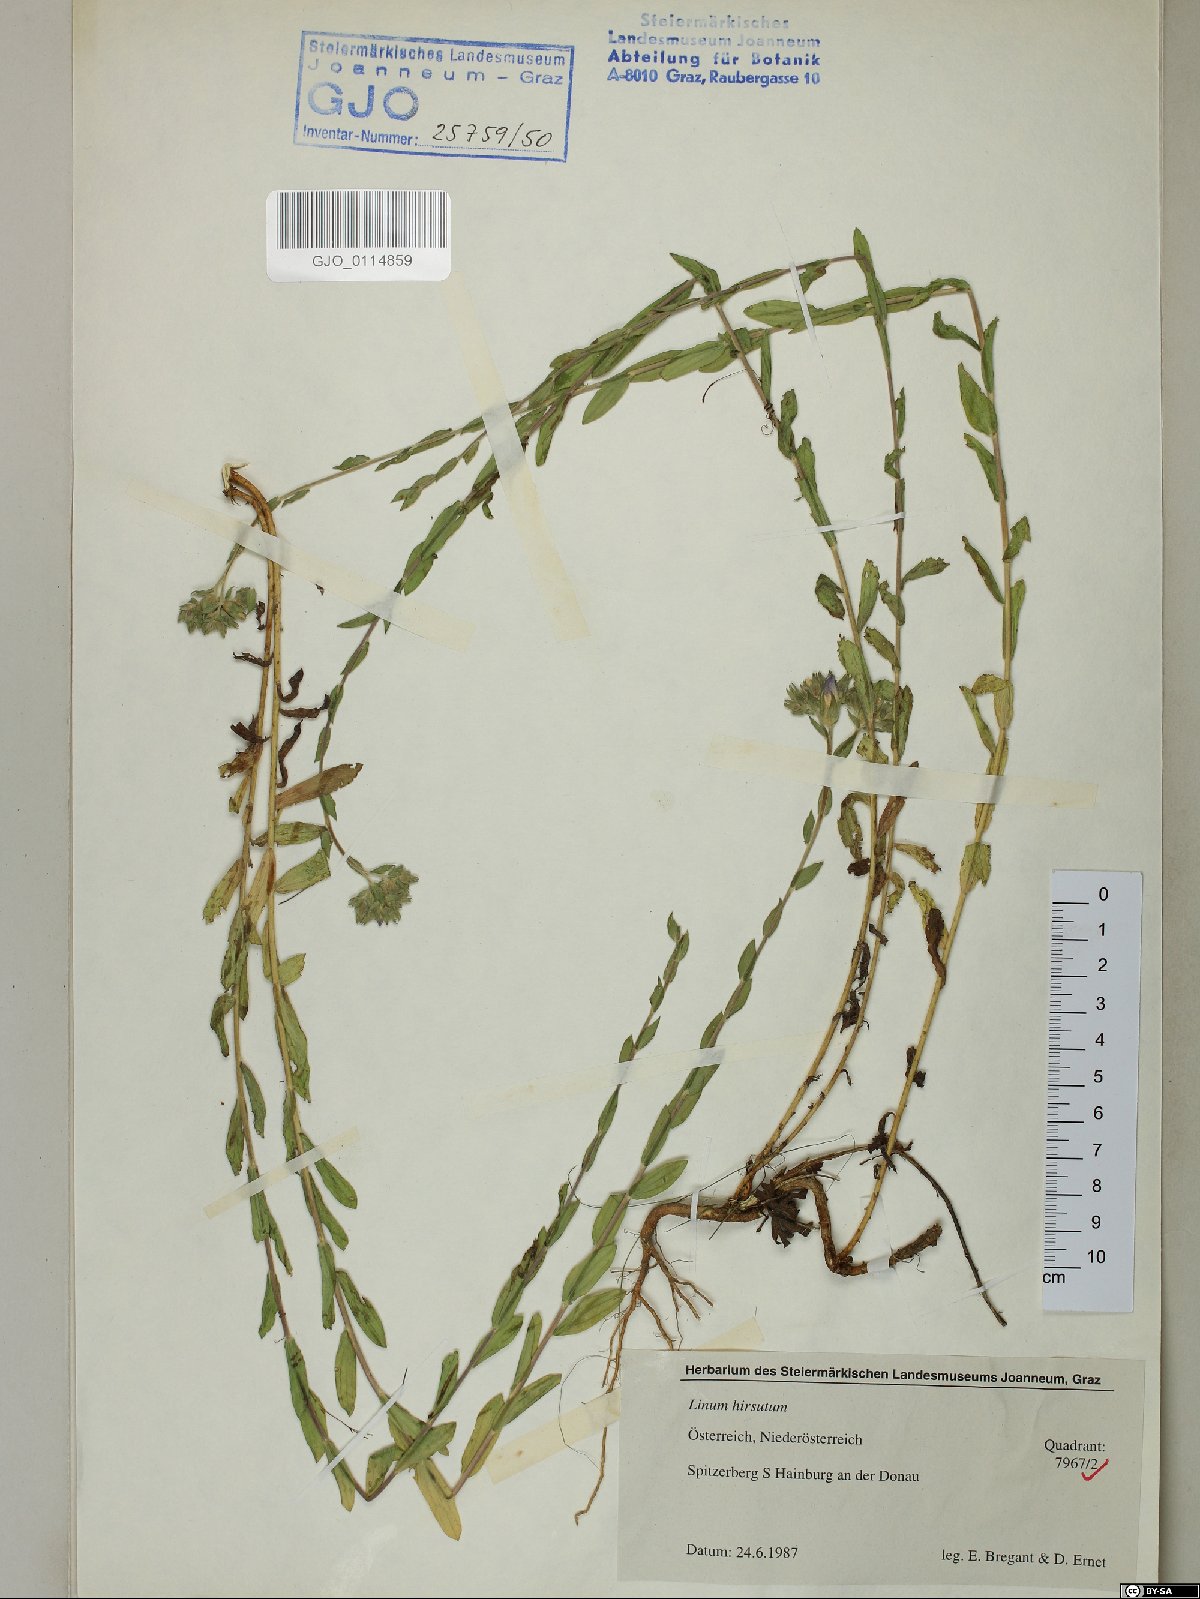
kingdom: Plantae
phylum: Tracheophyta
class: Magnoliopsida
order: Malpighiales
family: Linaceae
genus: Linum
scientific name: Linum hirsutum
